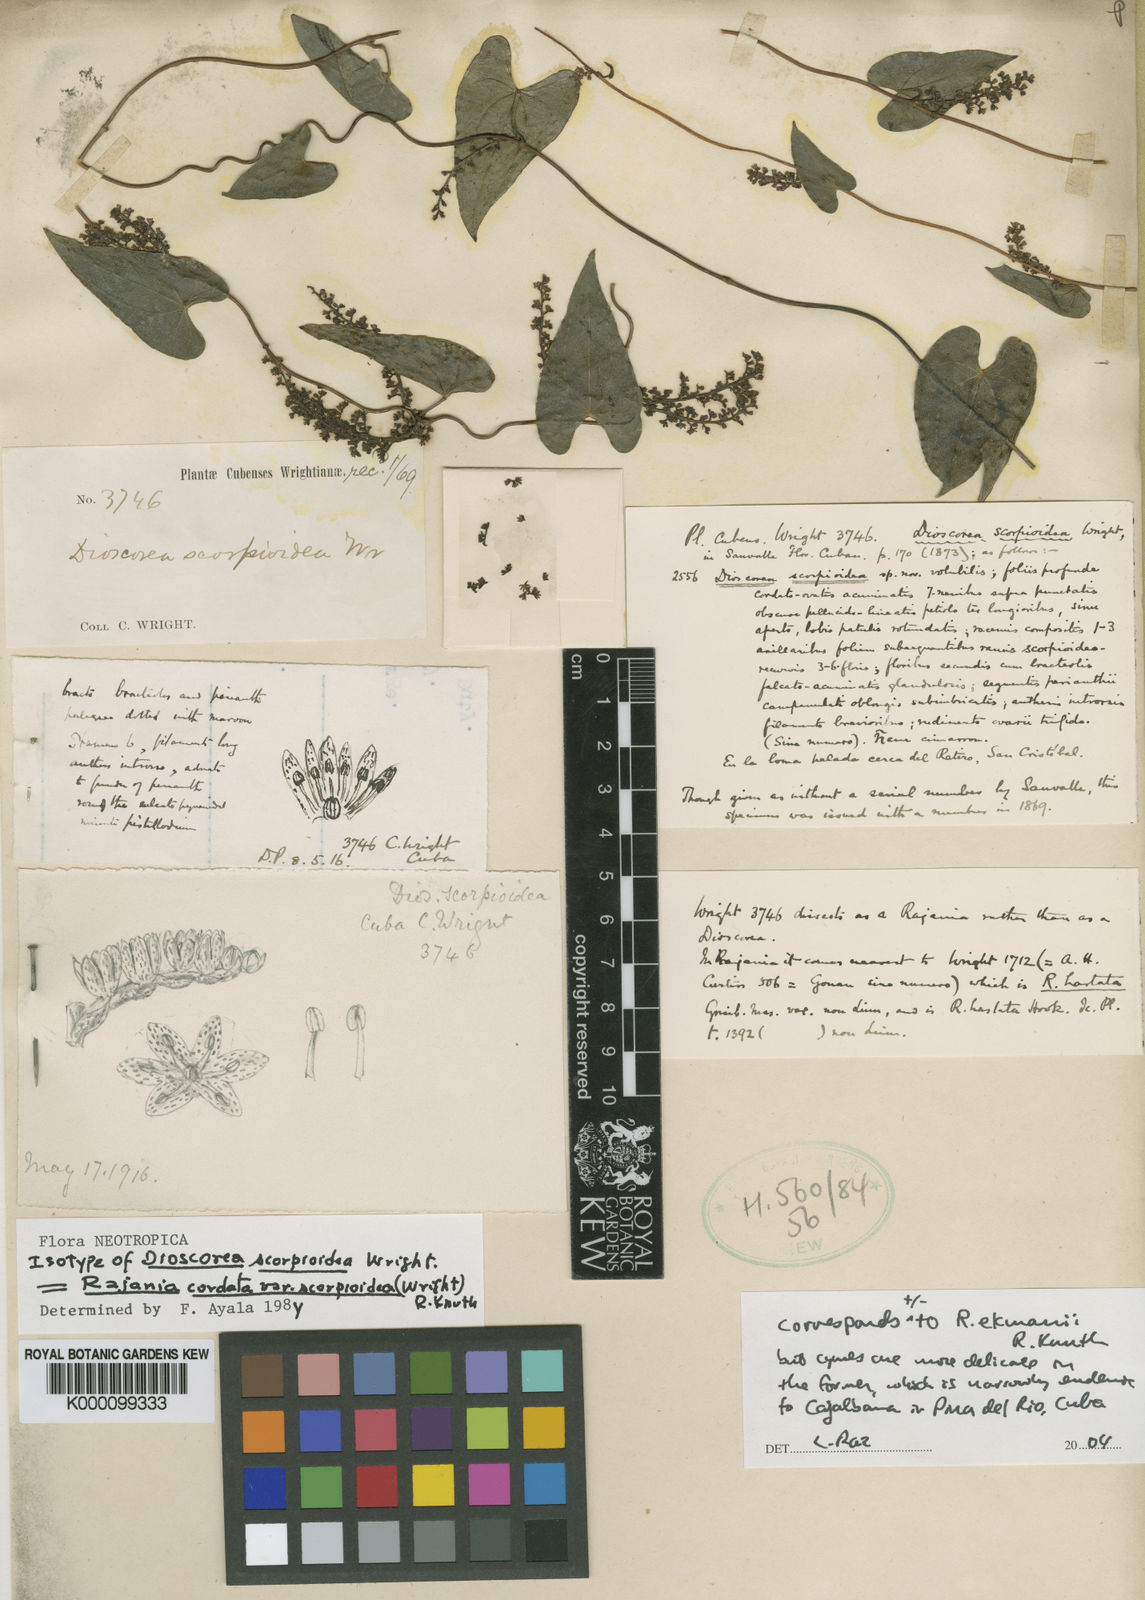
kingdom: Plantae
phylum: Tracheophyta
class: Liliopsida
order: Dioscoreales
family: Dioscoreaceae
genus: Dioscorea
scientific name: Dioscorea psilostachya
